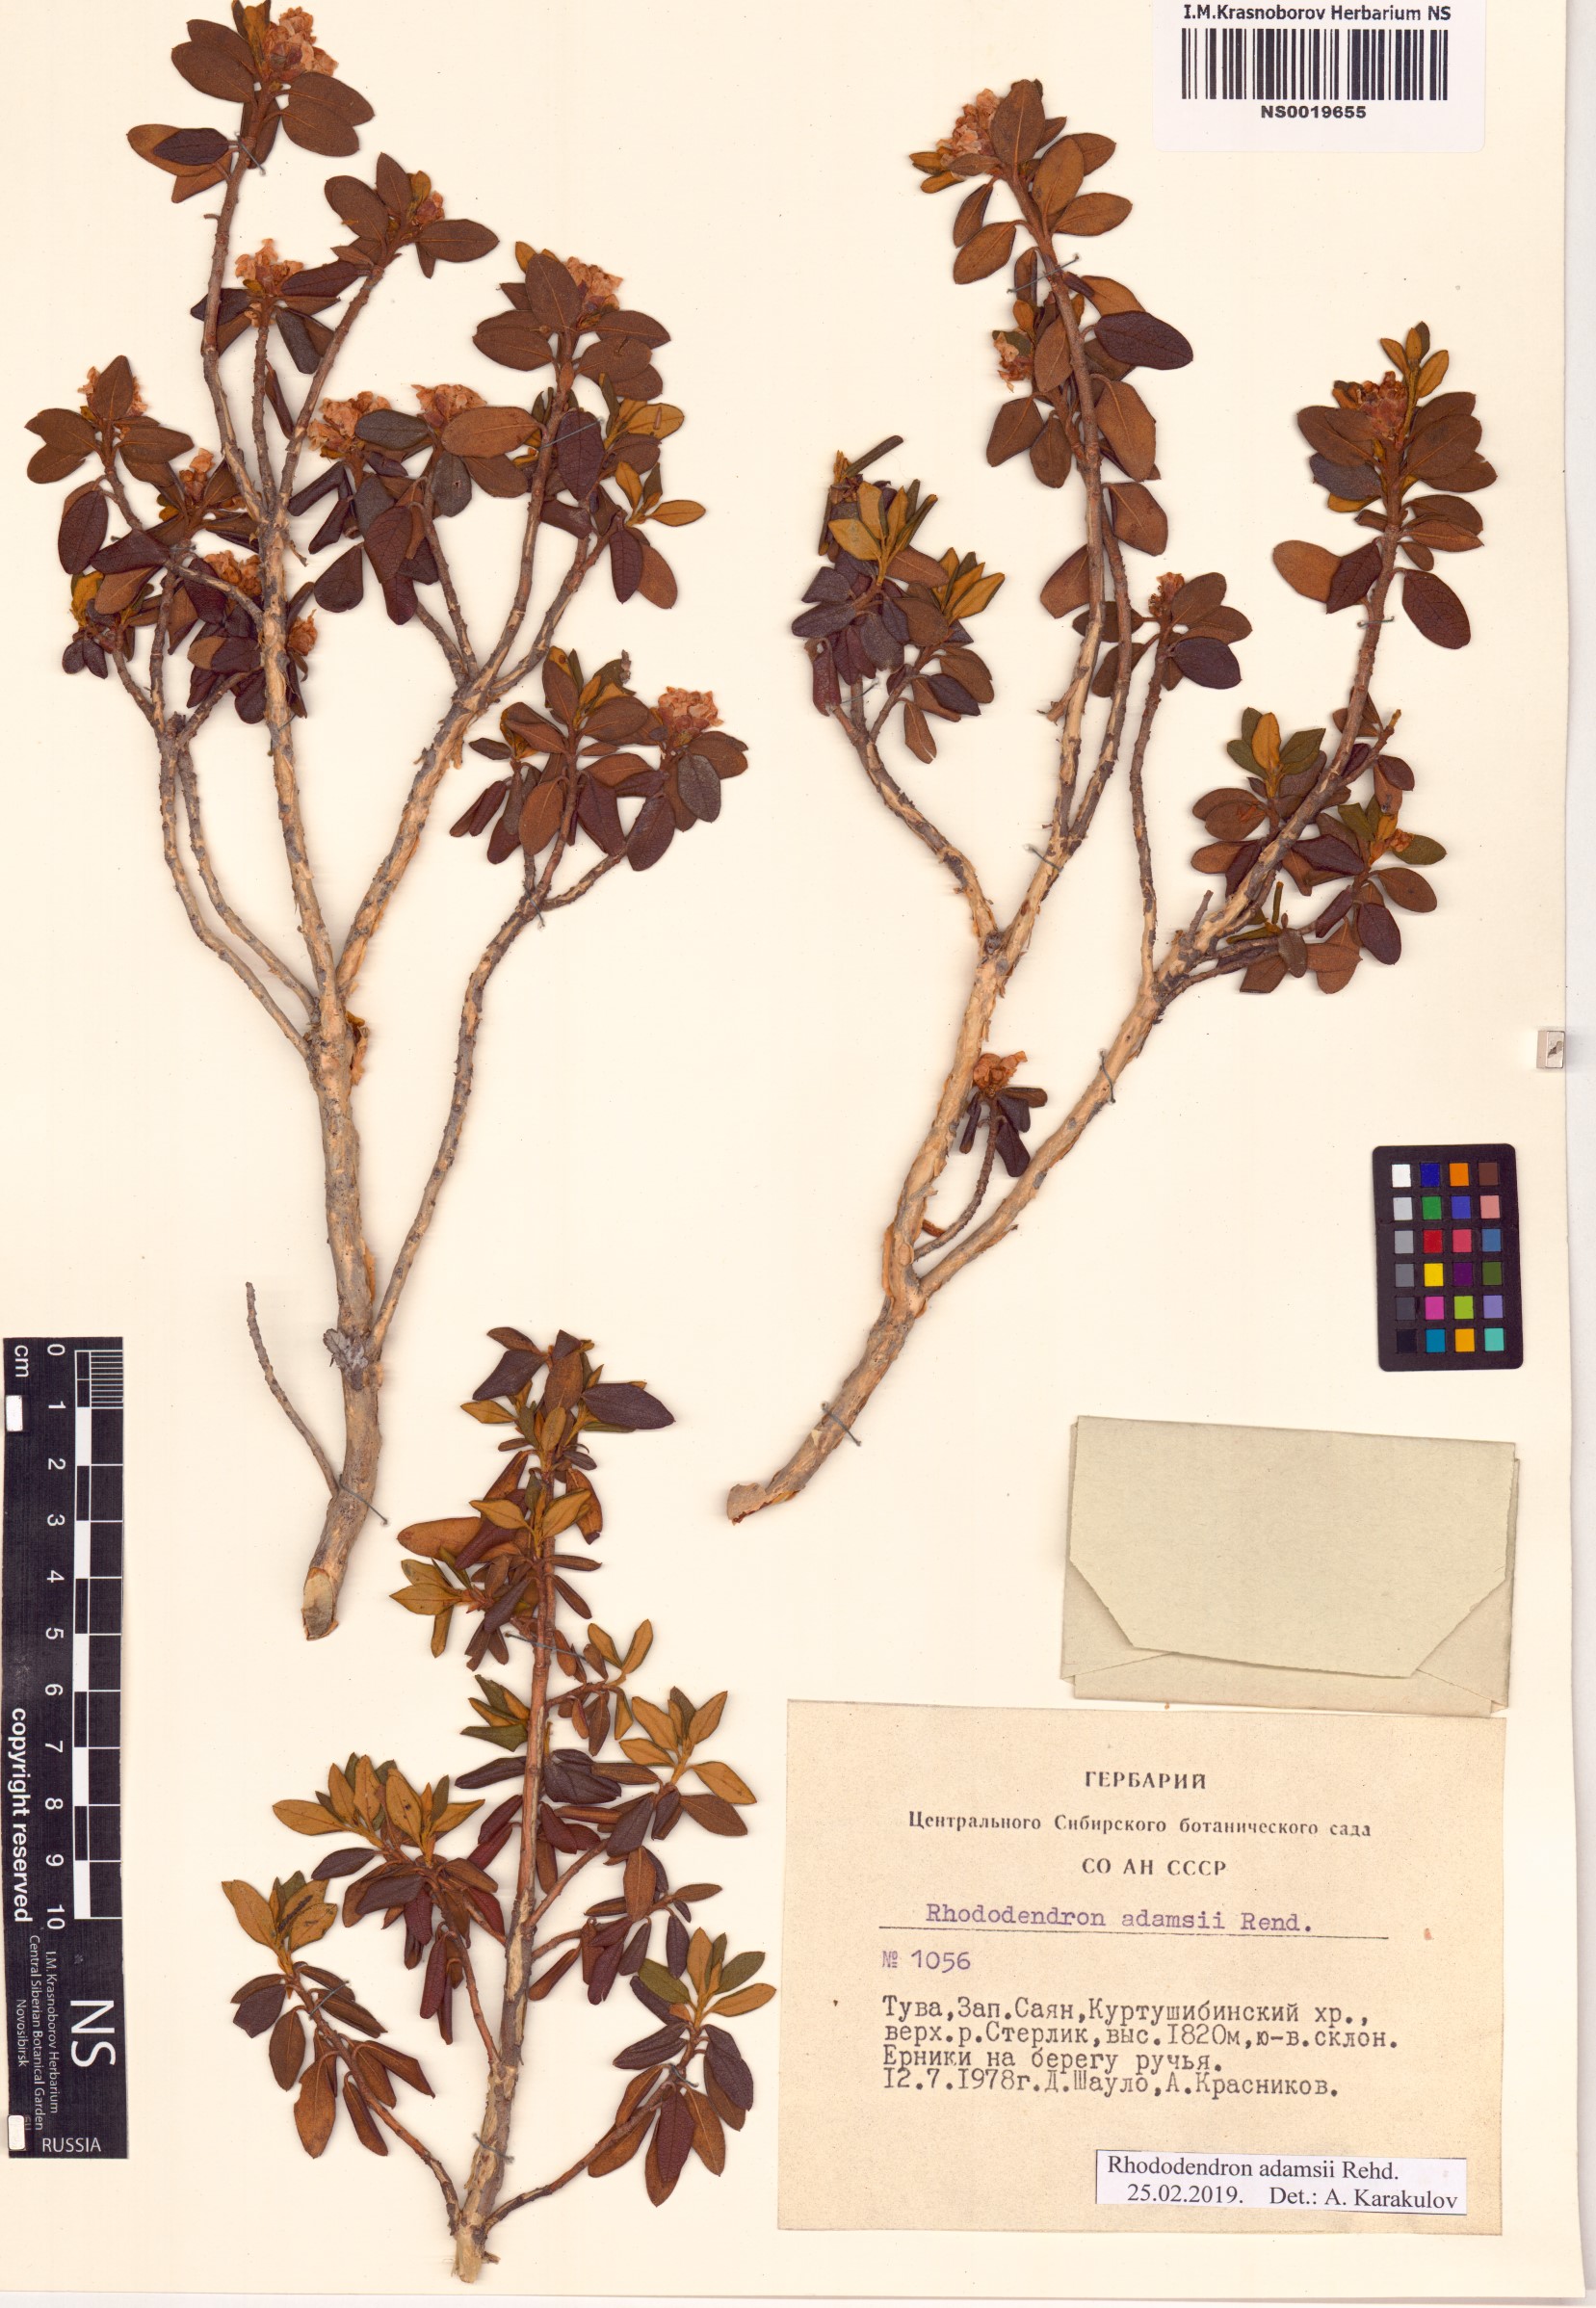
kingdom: Plantae
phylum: Tracheophyta
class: Magnoliopsida
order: Ericales
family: Ericaceae
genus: Rhododendron
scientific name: Rhododendron adamsii
